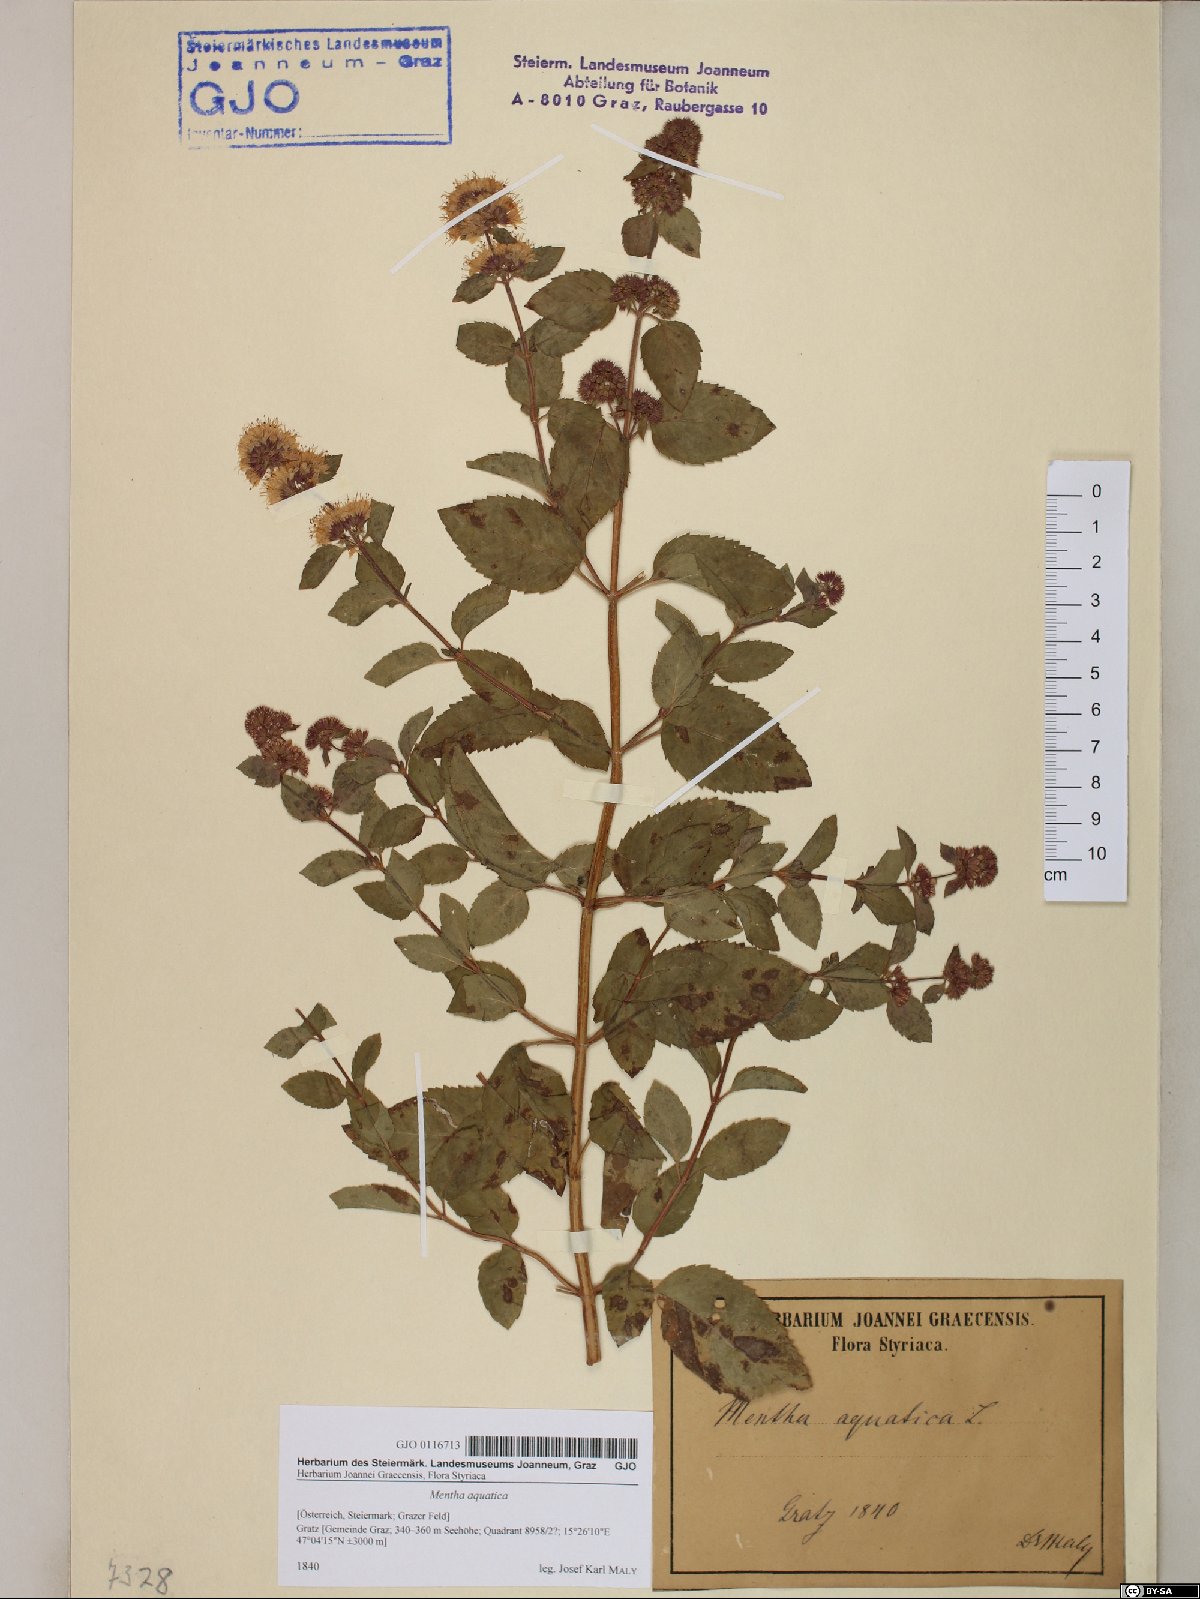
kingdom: Plantae
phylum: Tracheophyta
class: Magnoliopsida
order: Lamiales
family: Lamiaceae
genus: Mentha
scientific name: Mentha aquatica
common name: Water mint
